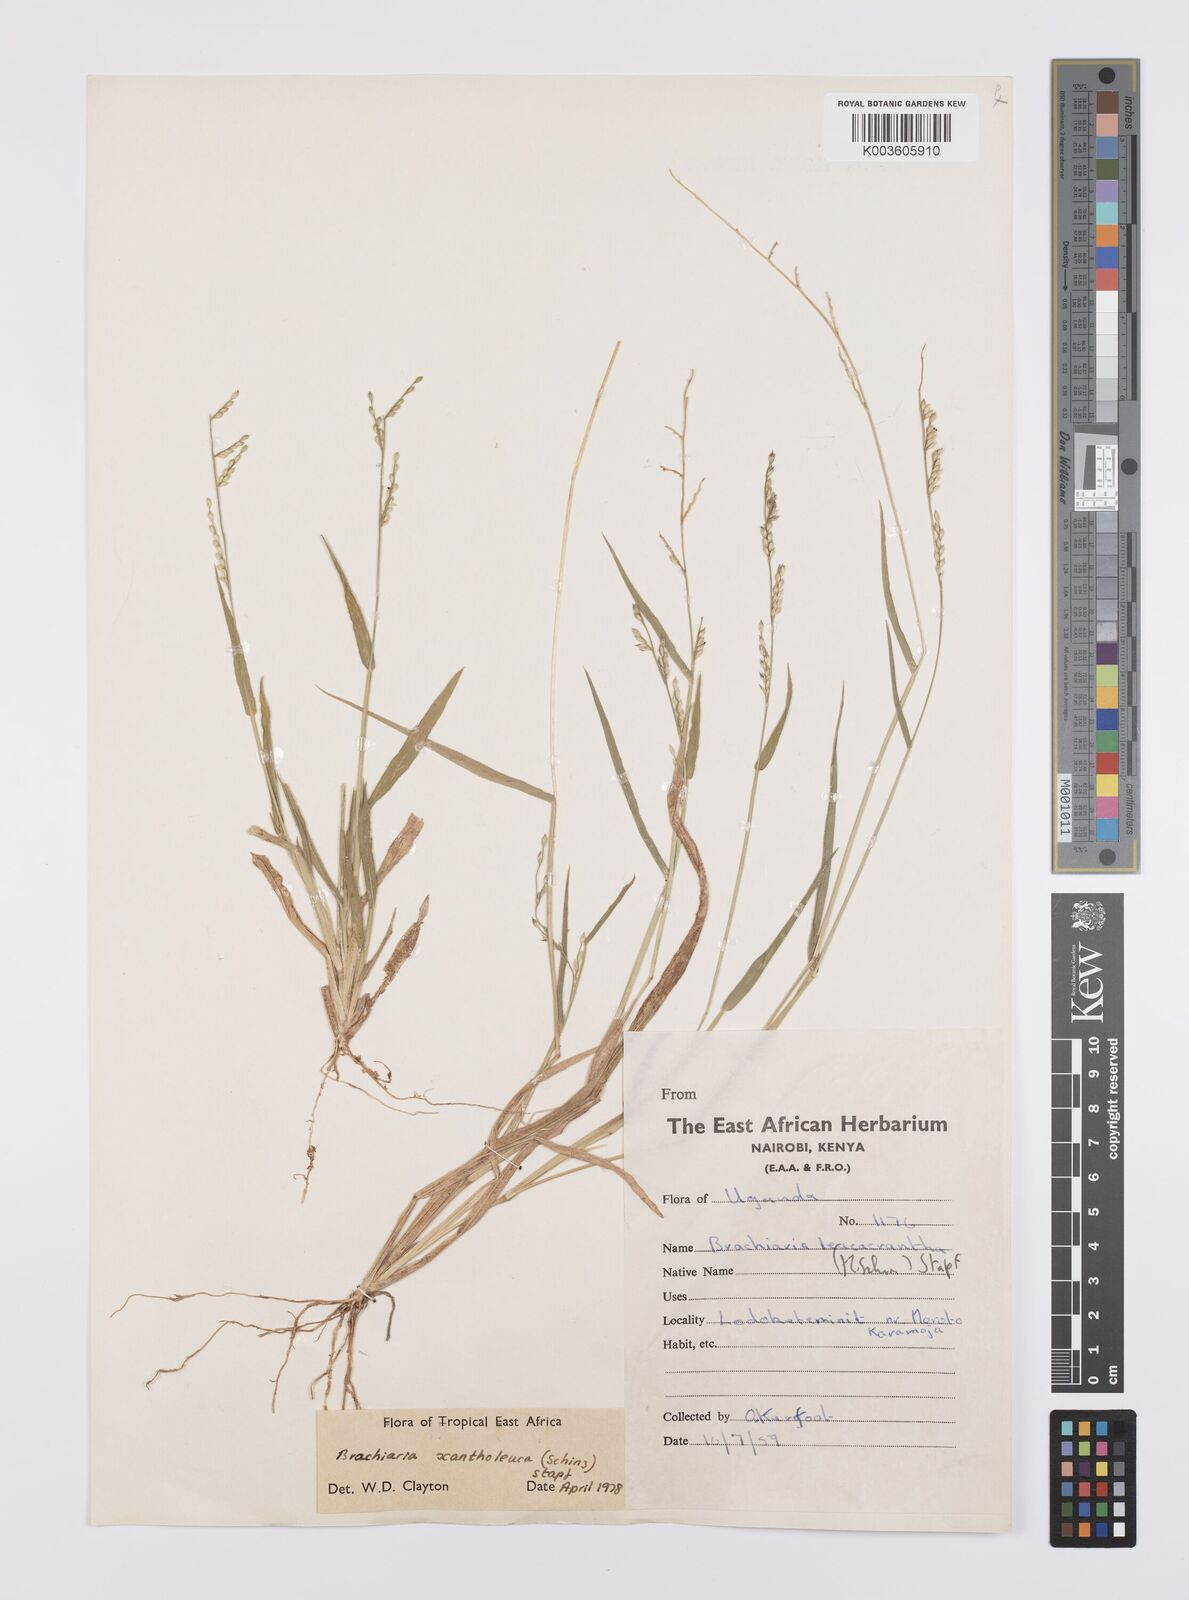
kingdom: Plantae
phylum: Tracheophyta
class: Liliopsida
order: Poales
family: Poaceae
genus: Urochloa
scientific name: Urochloa xantholeuca
